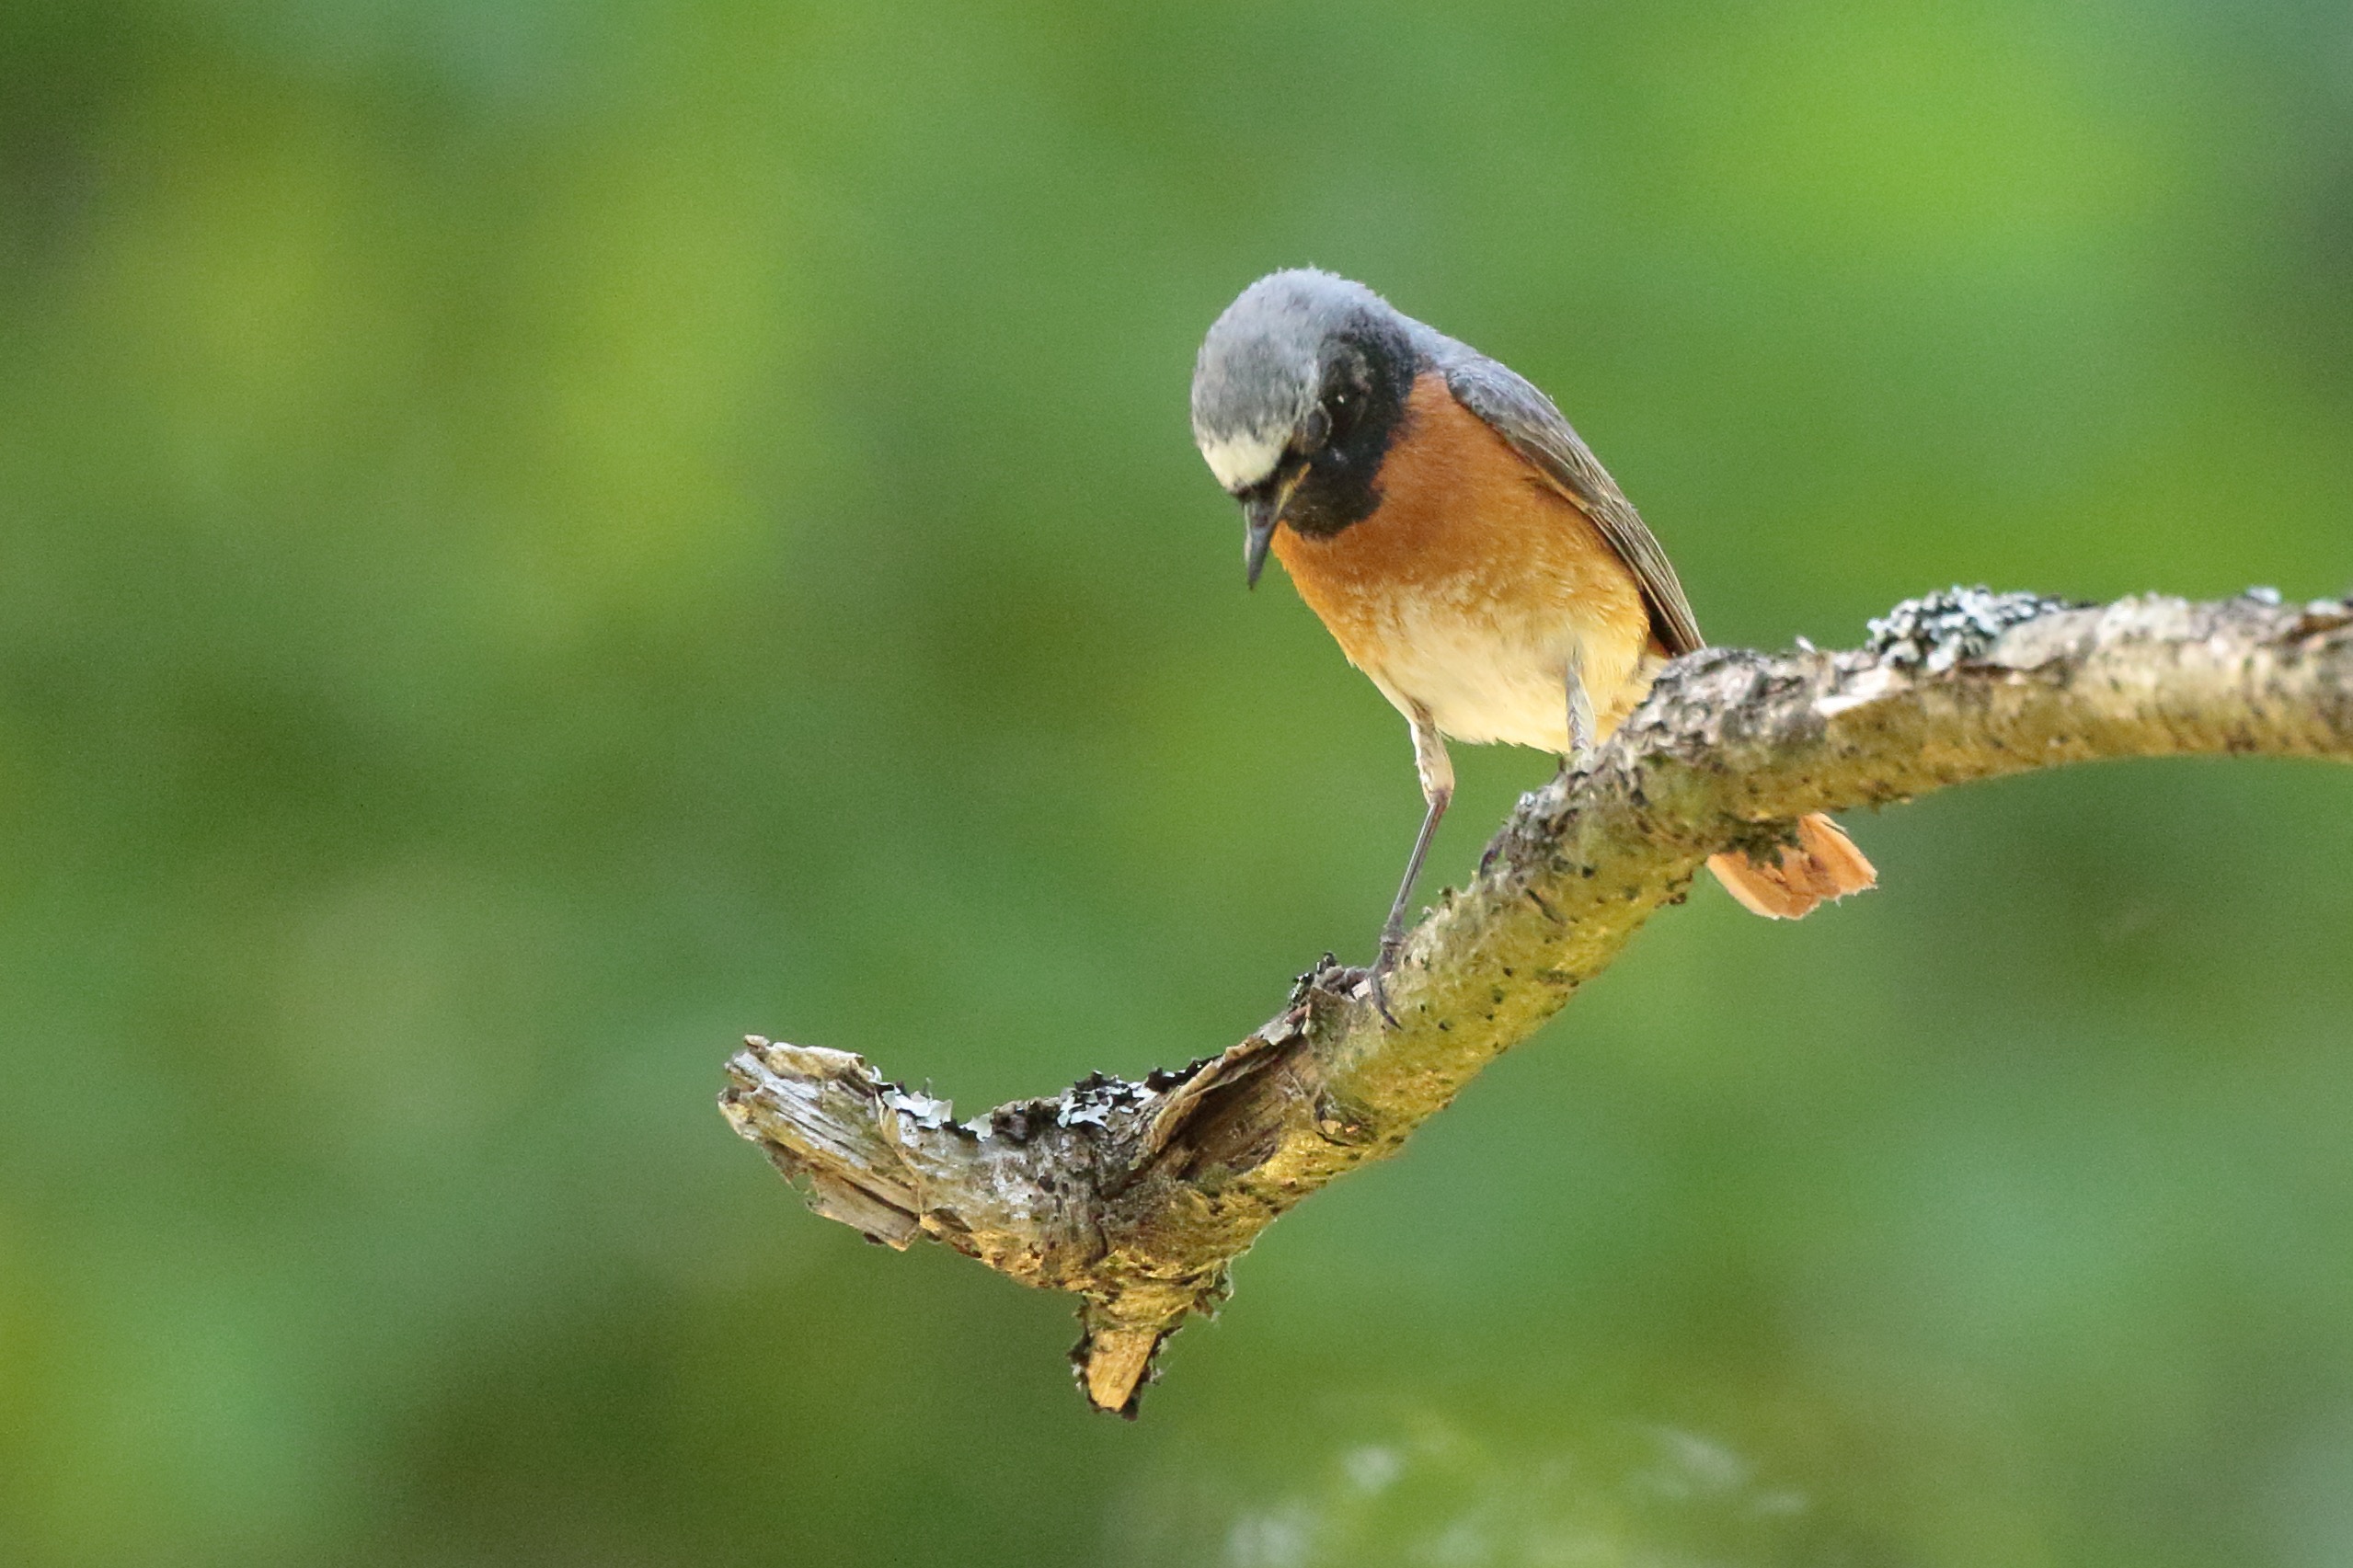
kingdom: Animalia
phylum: Chordata
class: Aves
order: Passeriformes
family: Muscicapidae
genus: Phoenicurus
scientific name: Phoenicurus phoenicurus
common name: Rødstjert
